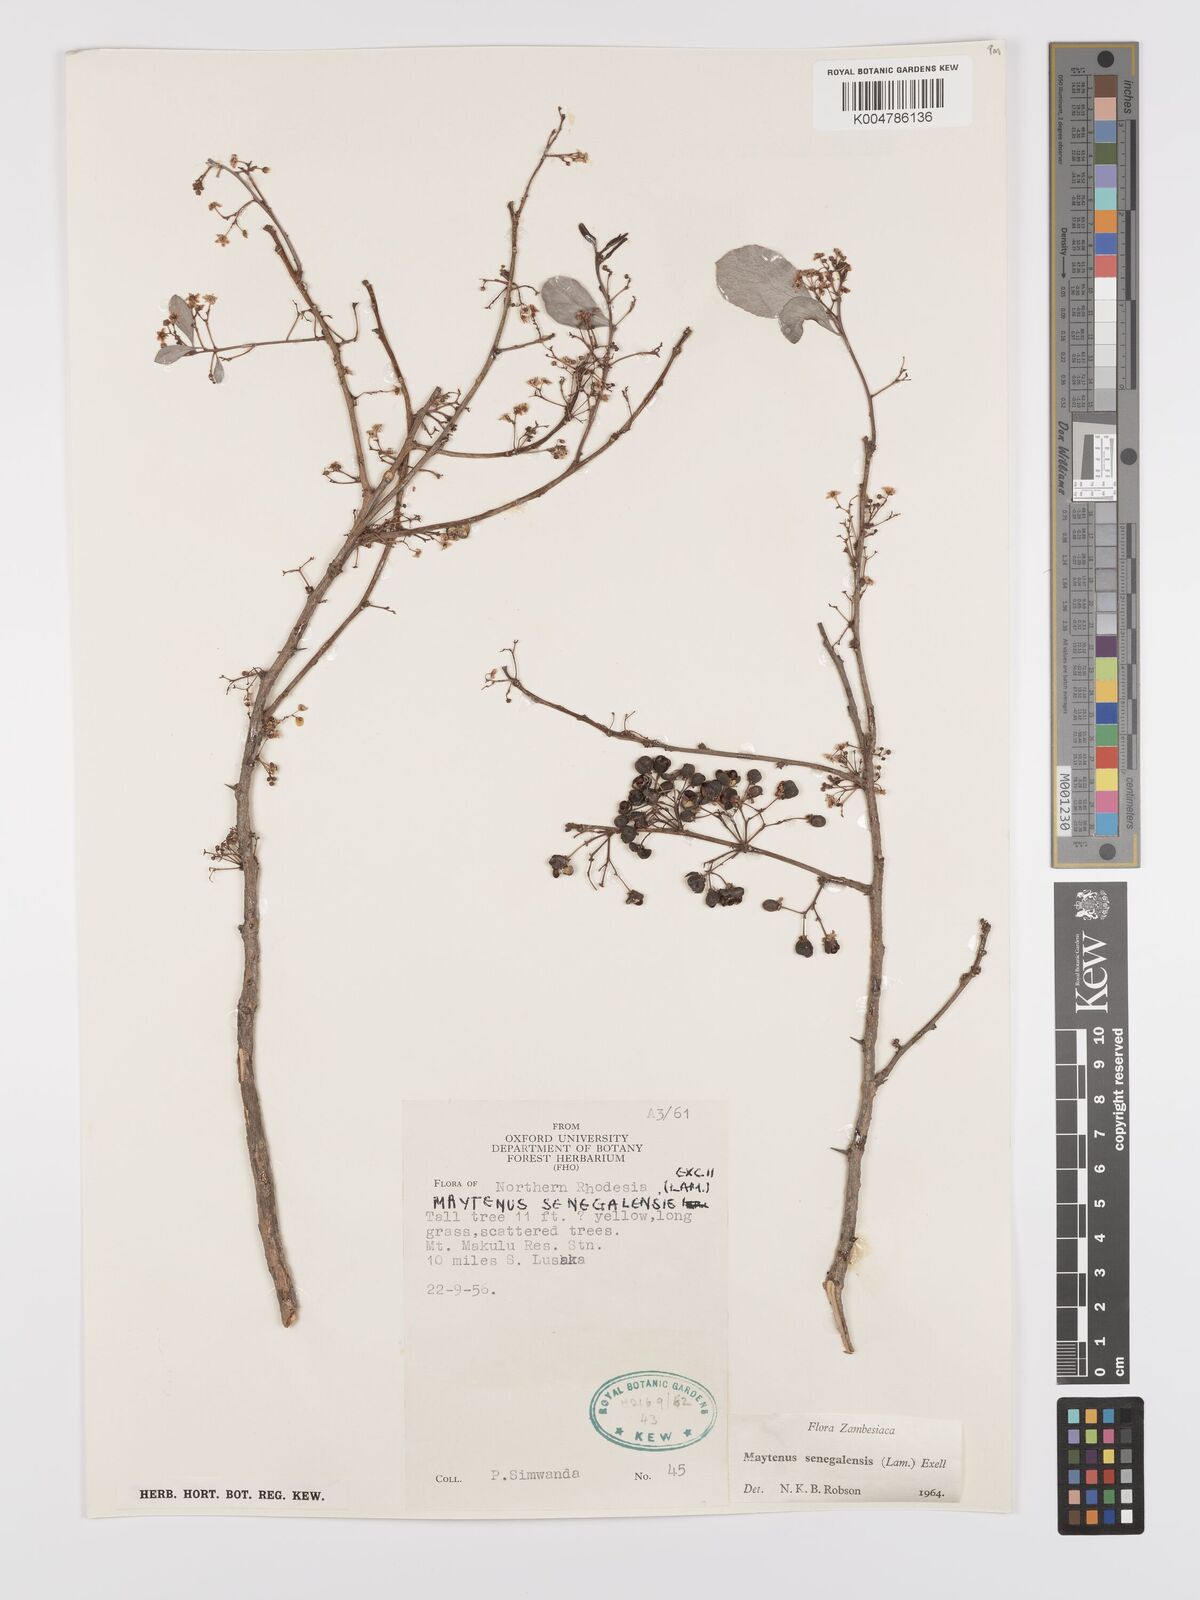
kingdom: Plantae
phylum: Tracheophyta
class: Magnoliopsida
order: Celastrales
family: Celastraceae
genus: Gymnosporia
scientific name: Gymnosporia senegalensis
